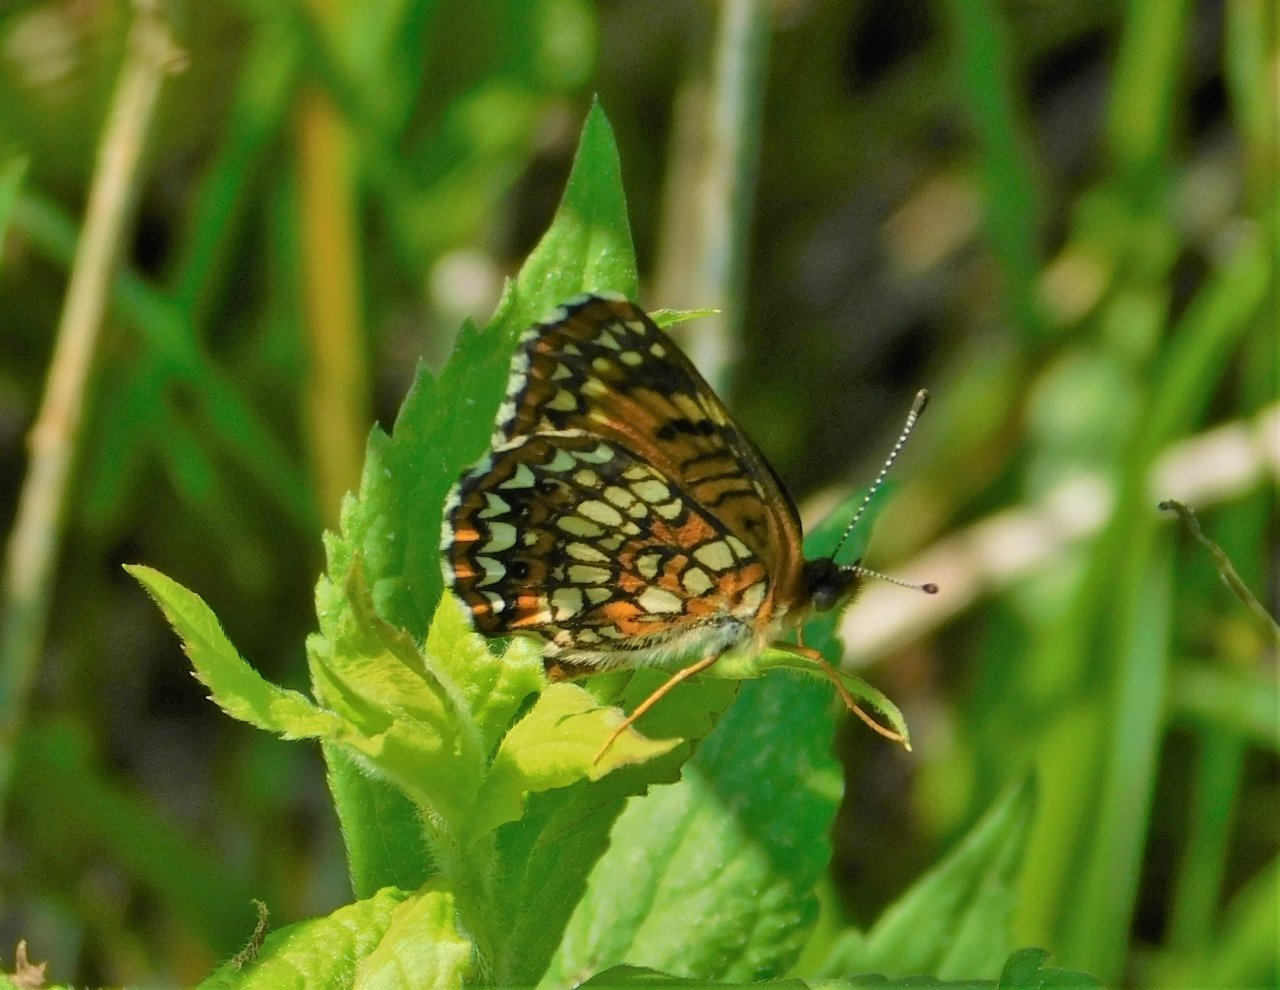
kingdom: Animalia
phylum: Arthropoda
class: Insecta
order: Lepidoptera
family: Nymphalidae
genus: Chlosyne
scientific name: Chlosyne harrisii
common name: Harris's Checkerspot
